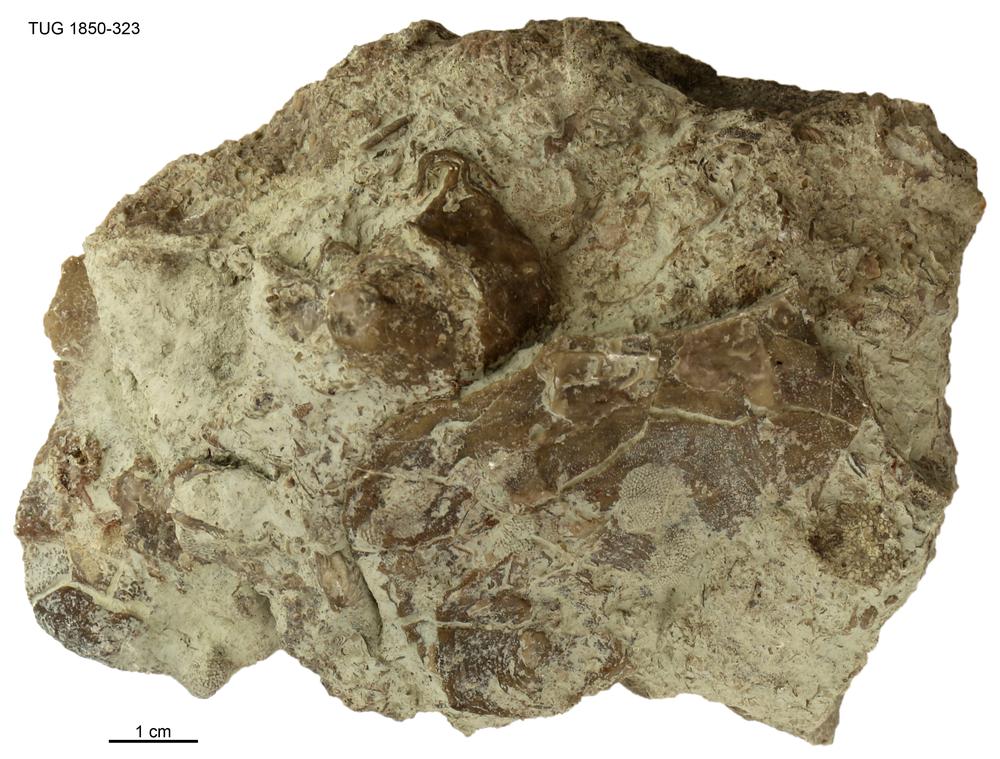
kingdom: Animalia
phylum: Porifera
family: Stromatoporidae
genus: Stromatopora
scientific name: Stromatopora
